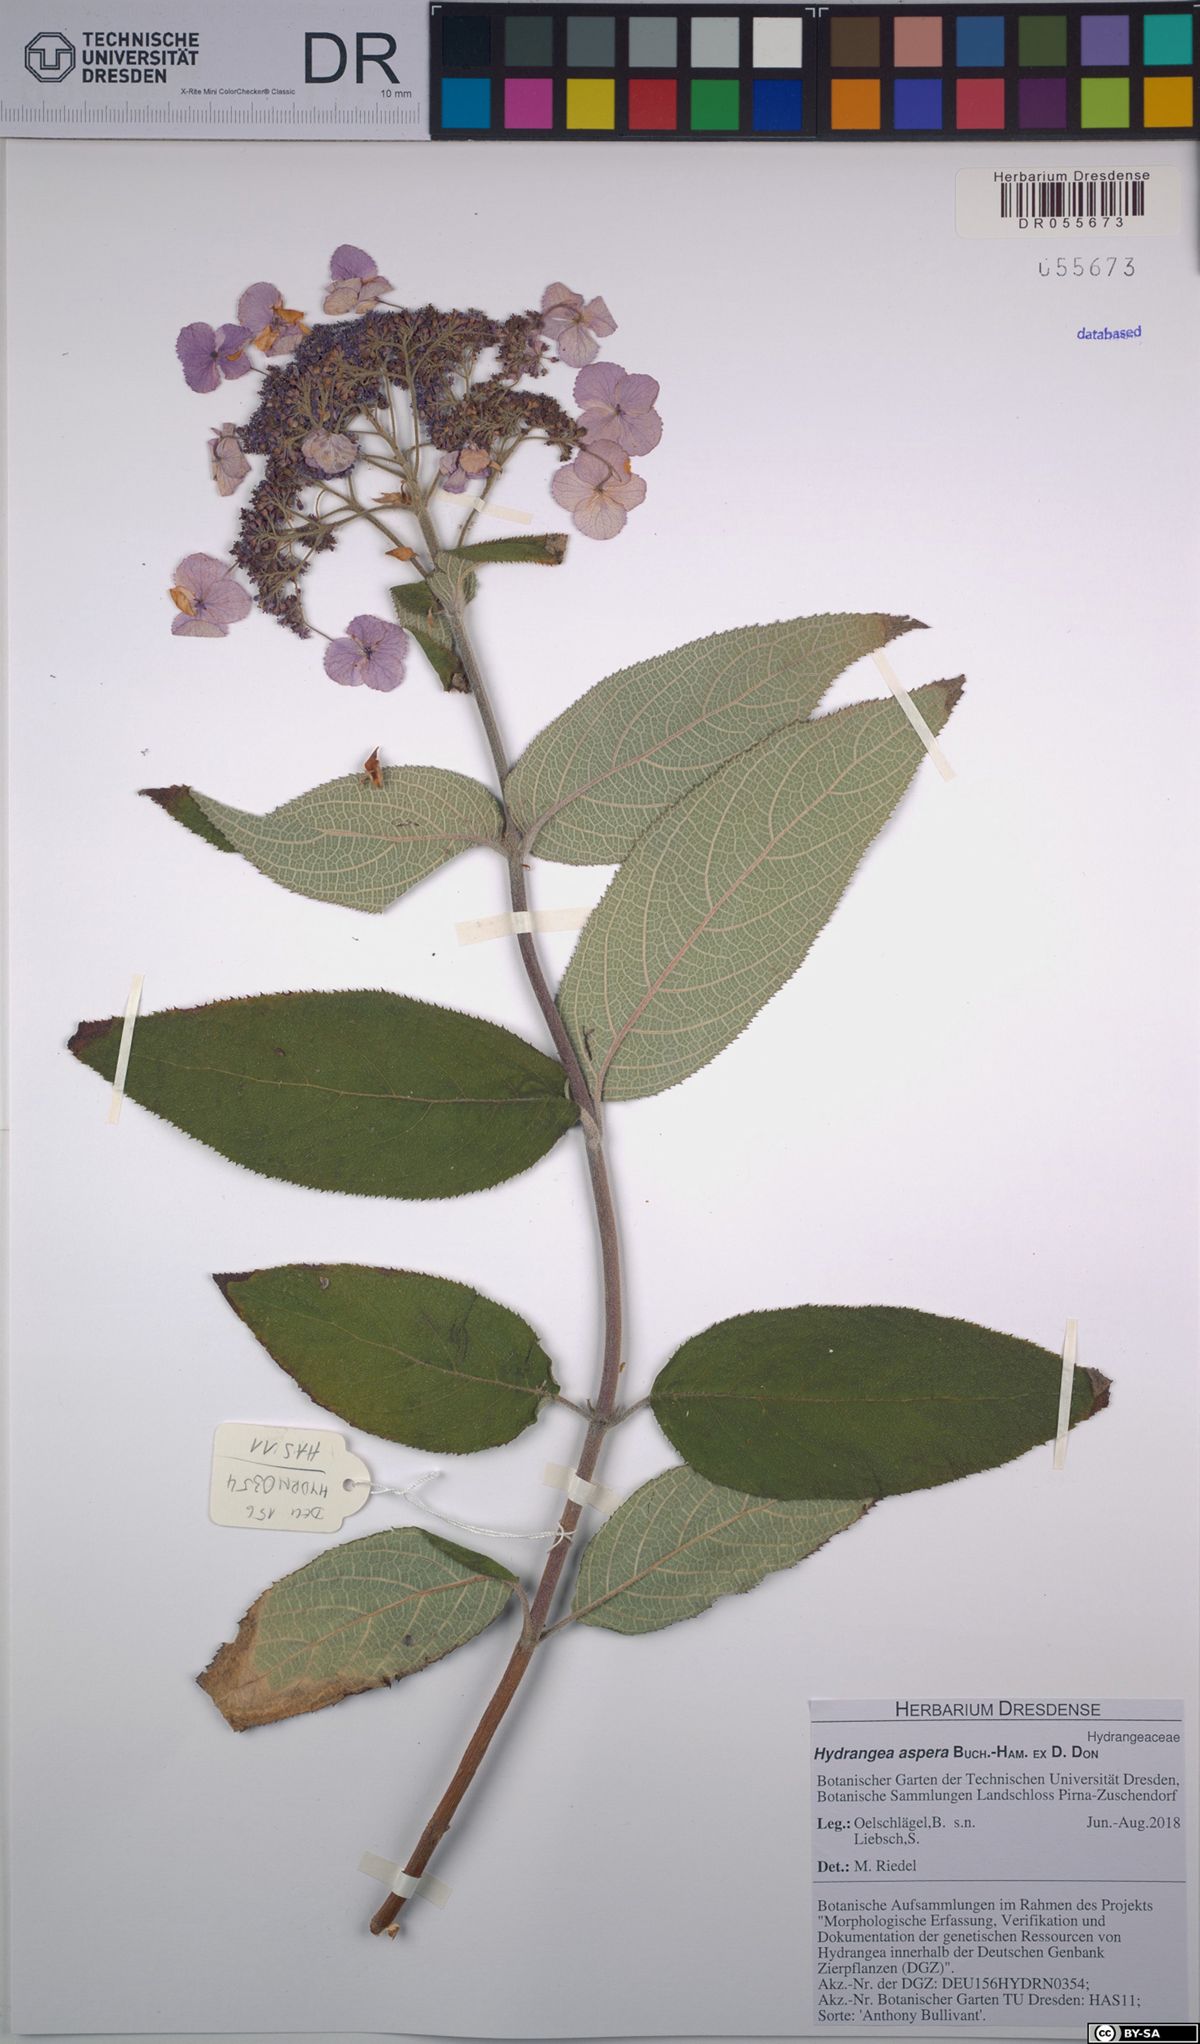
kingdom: Plantae
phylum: Tracheophyta
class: Magnoliopsida
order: Cornales
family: Hydrangeaceae
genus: Hydrangea
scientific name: Hydrangea aspera
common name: Rough-leaf hydrangea
